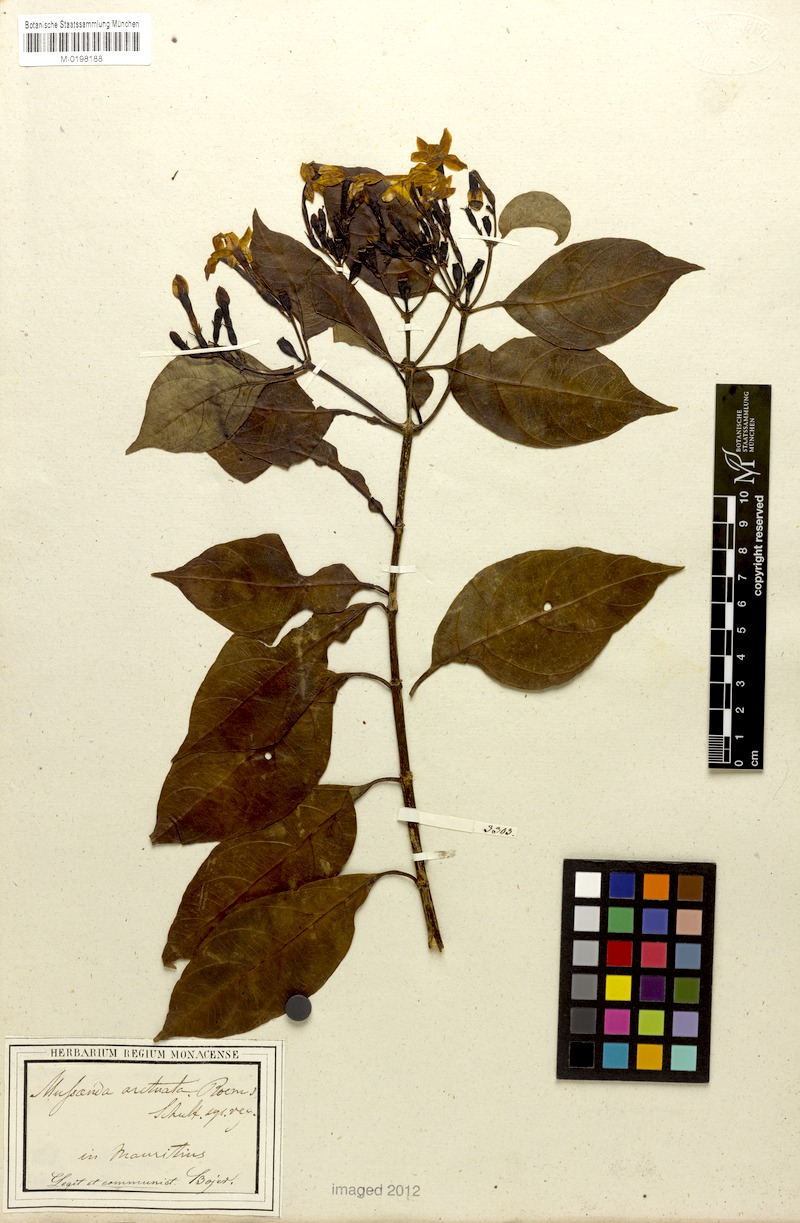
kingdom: Plantae
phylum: Tracheophyta
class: Magnoliopsida
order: Gentianales
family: Rubiaceae
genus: Mussaenda
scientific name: Mussaenda arcuata
